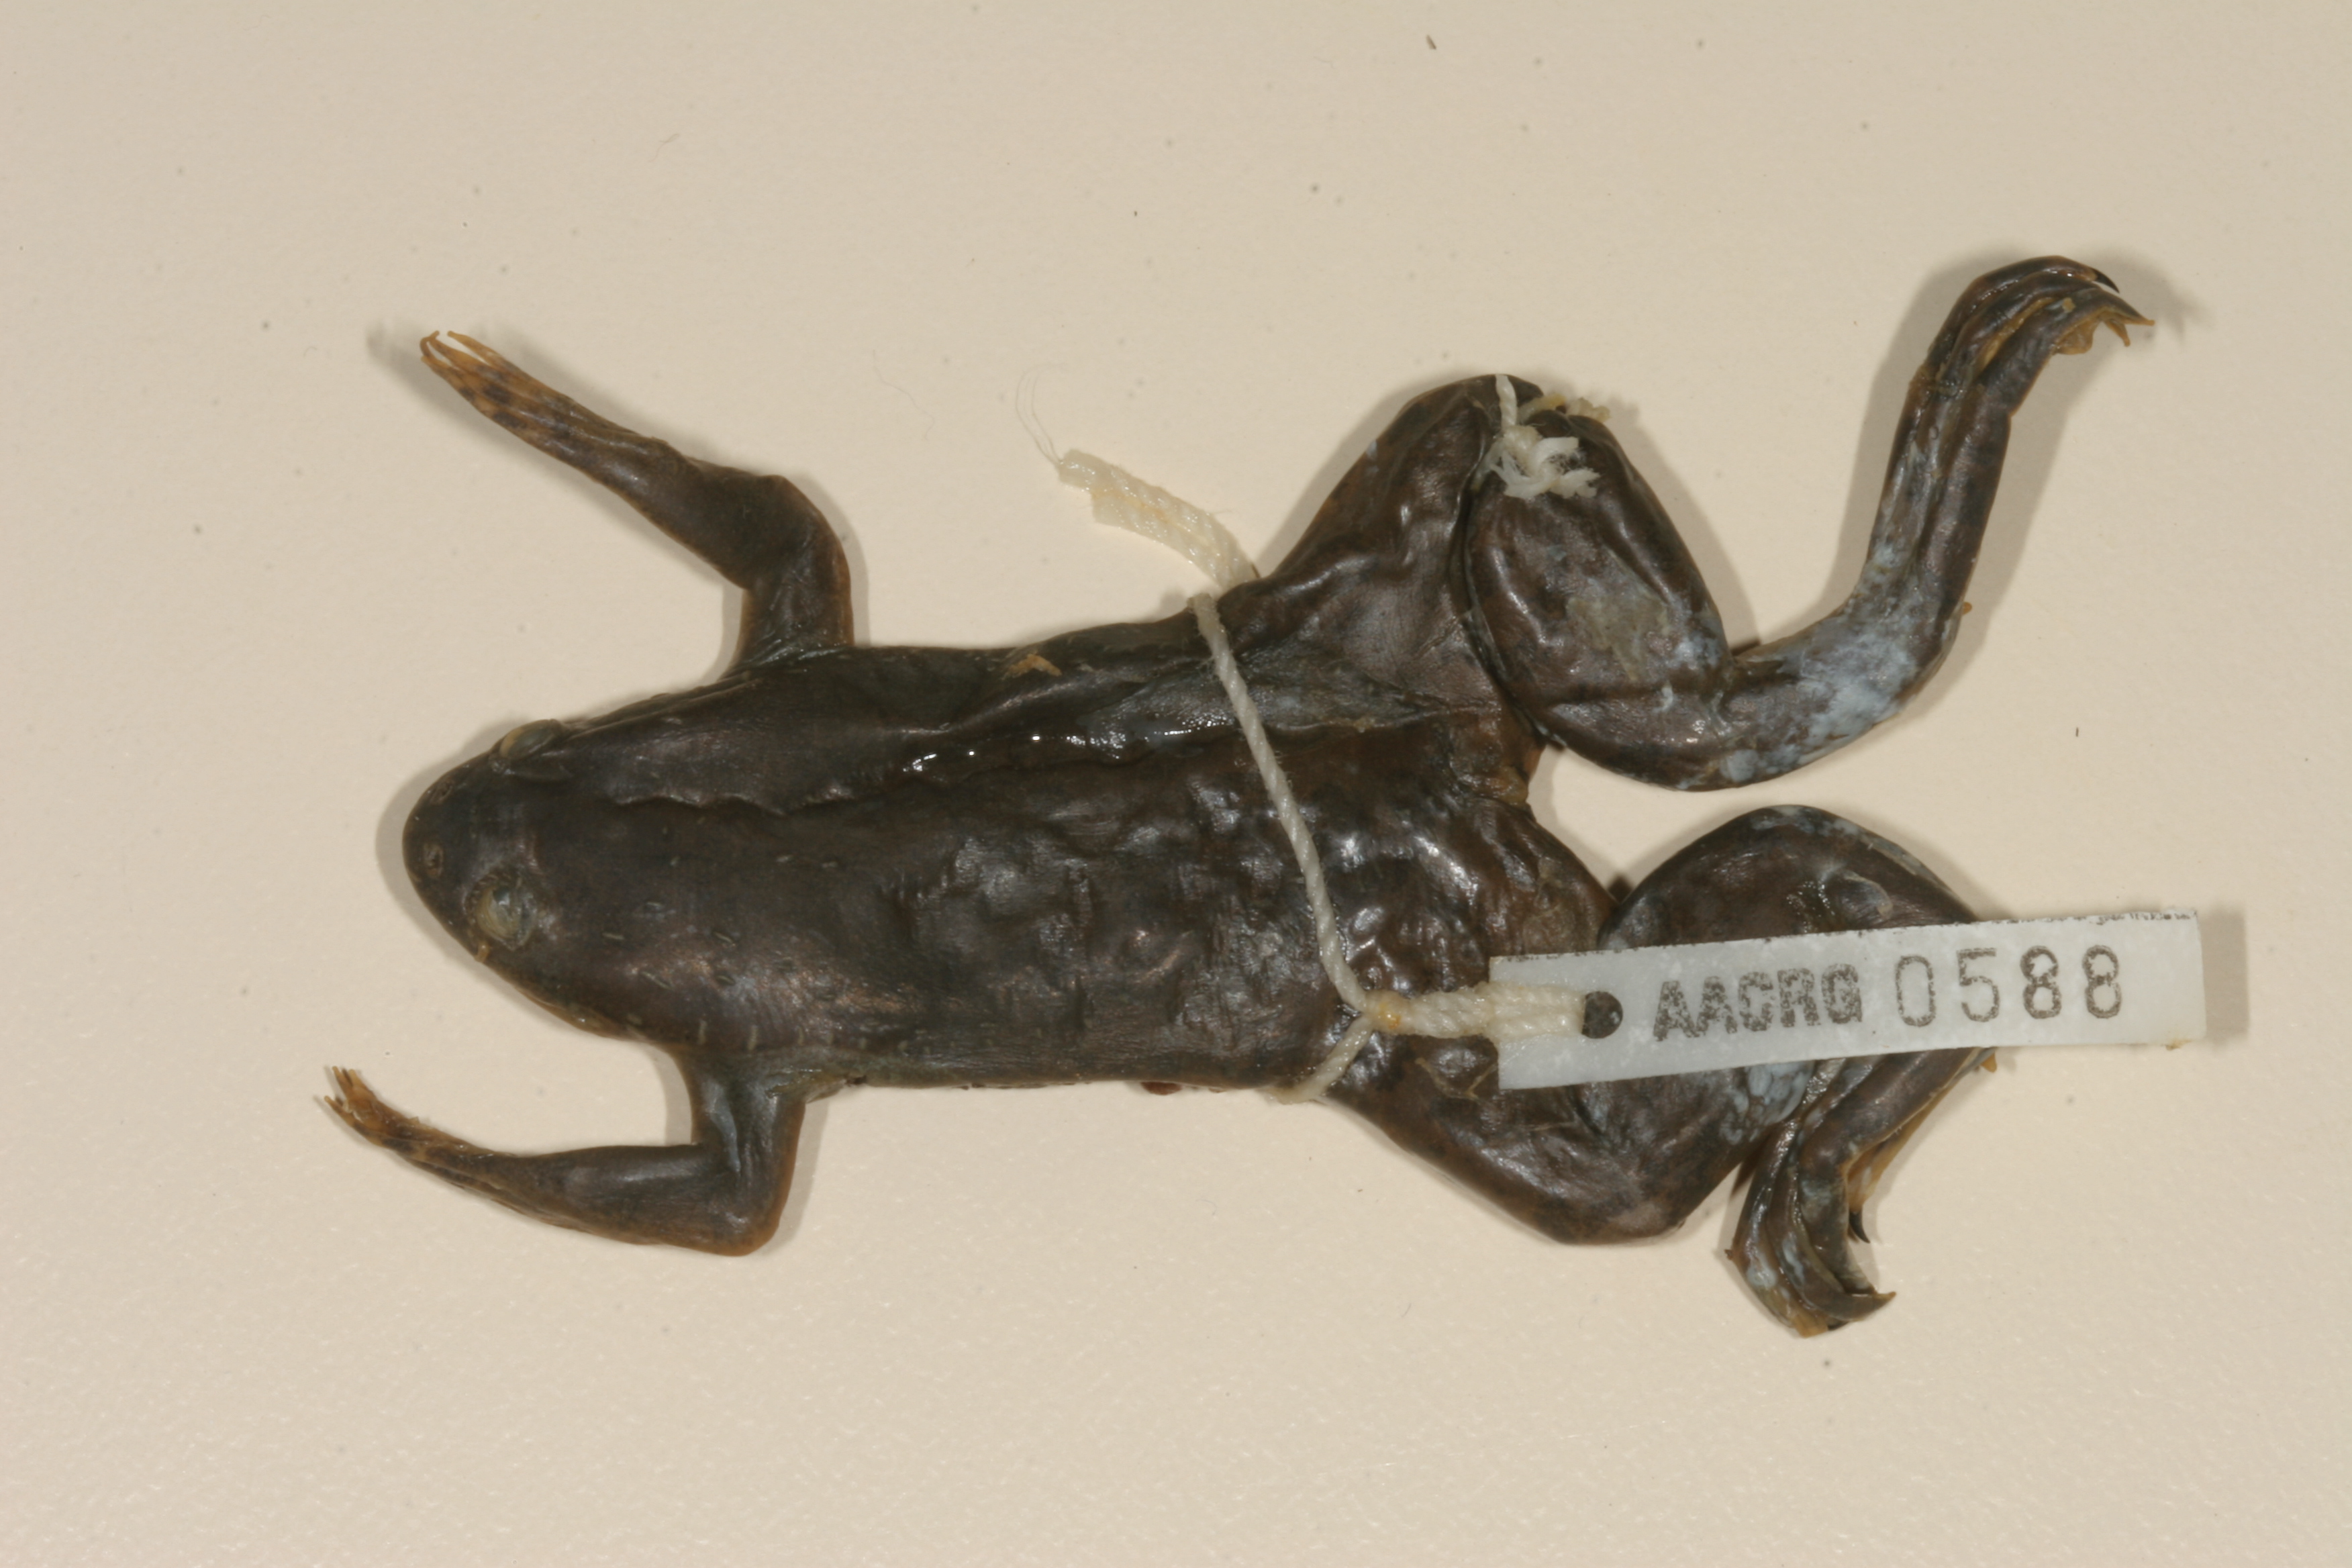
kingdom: Animalia
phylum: Chordata
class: Amphibia
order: Anura
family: Pipidae
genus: Xenopus
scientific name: Xenopus muelleri
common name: Muller's clawed frog
